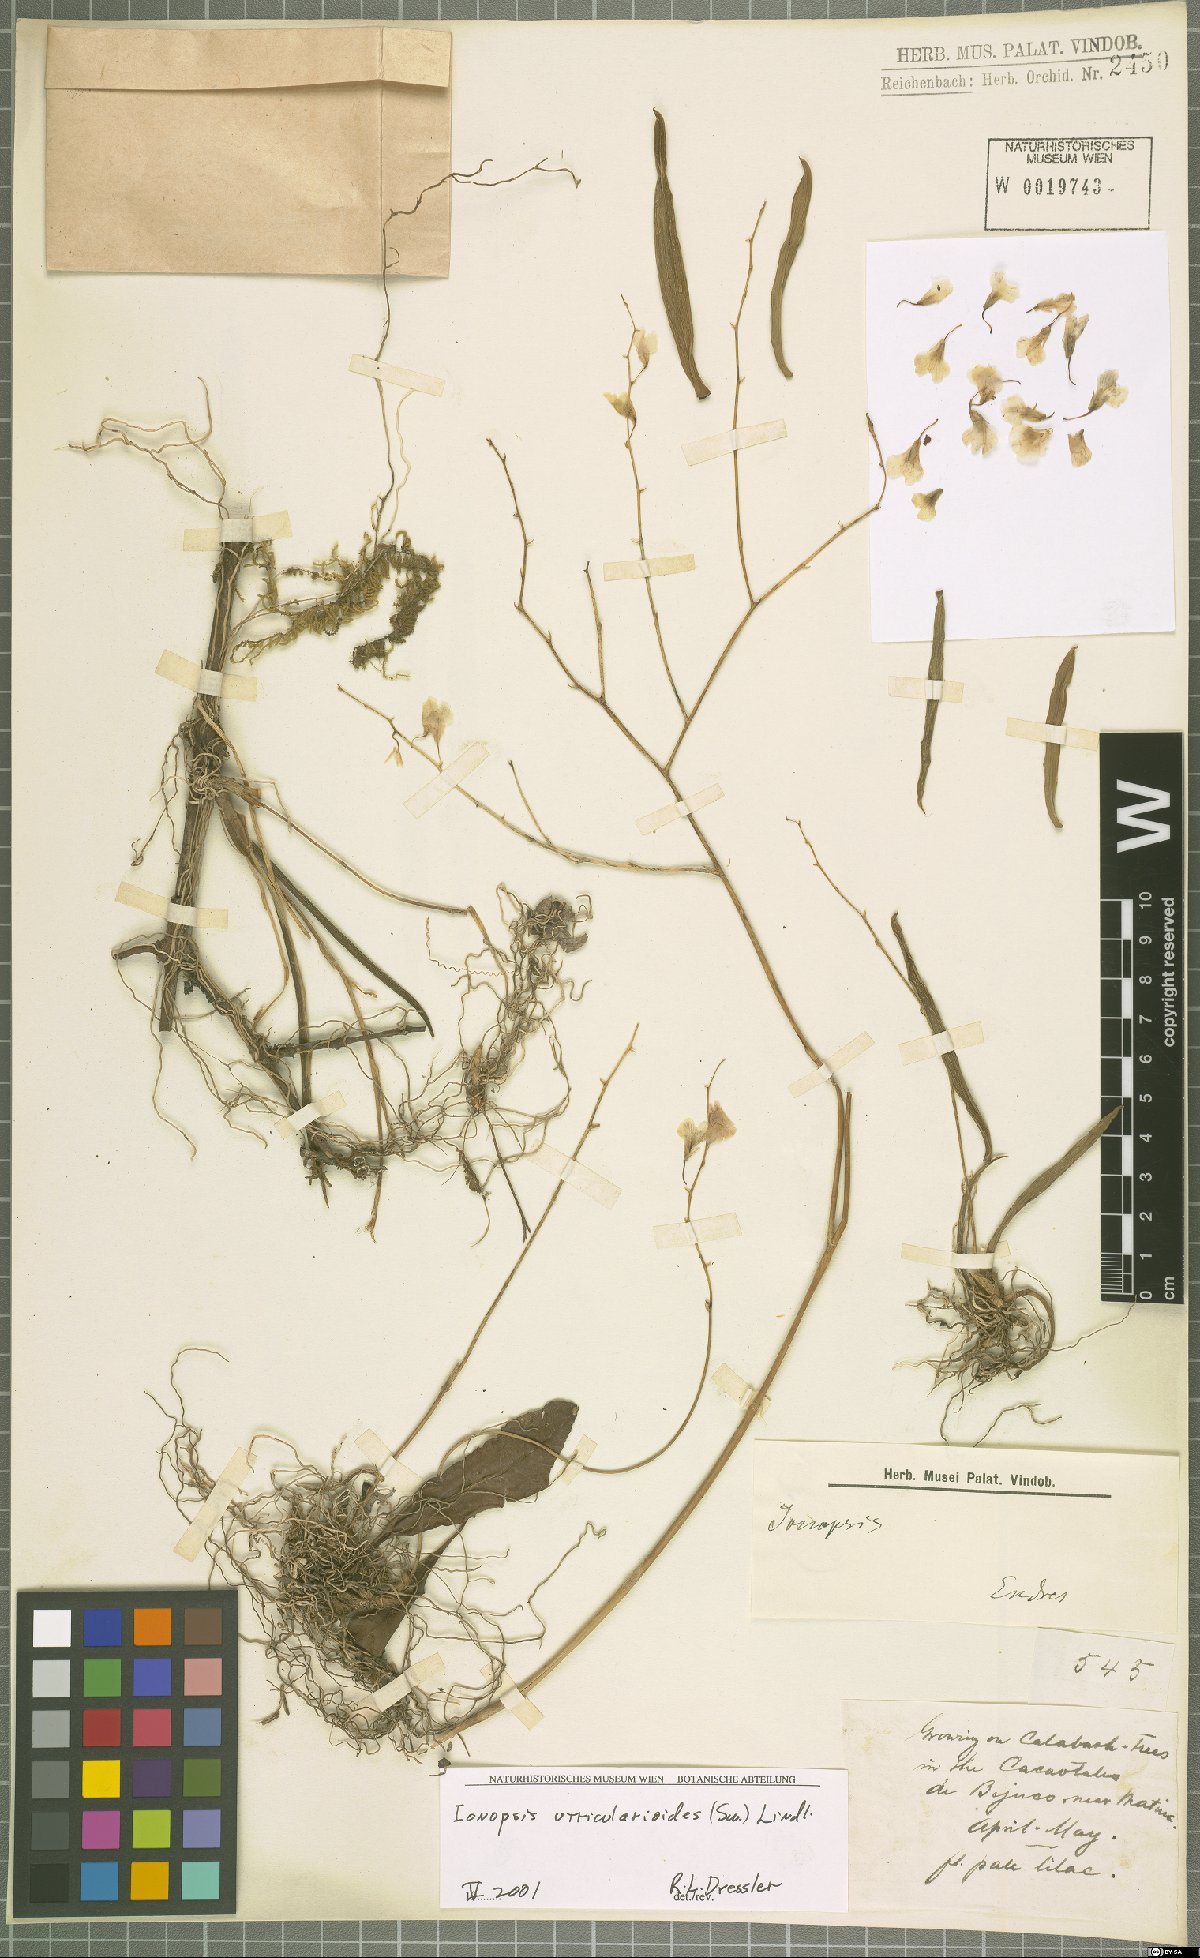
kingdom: Plantae
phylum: Tracheophyta
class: Liliopsida
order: Asparagales
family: Orchidaceae
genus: Ionopsis
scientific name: Ionopsis utricularioides
